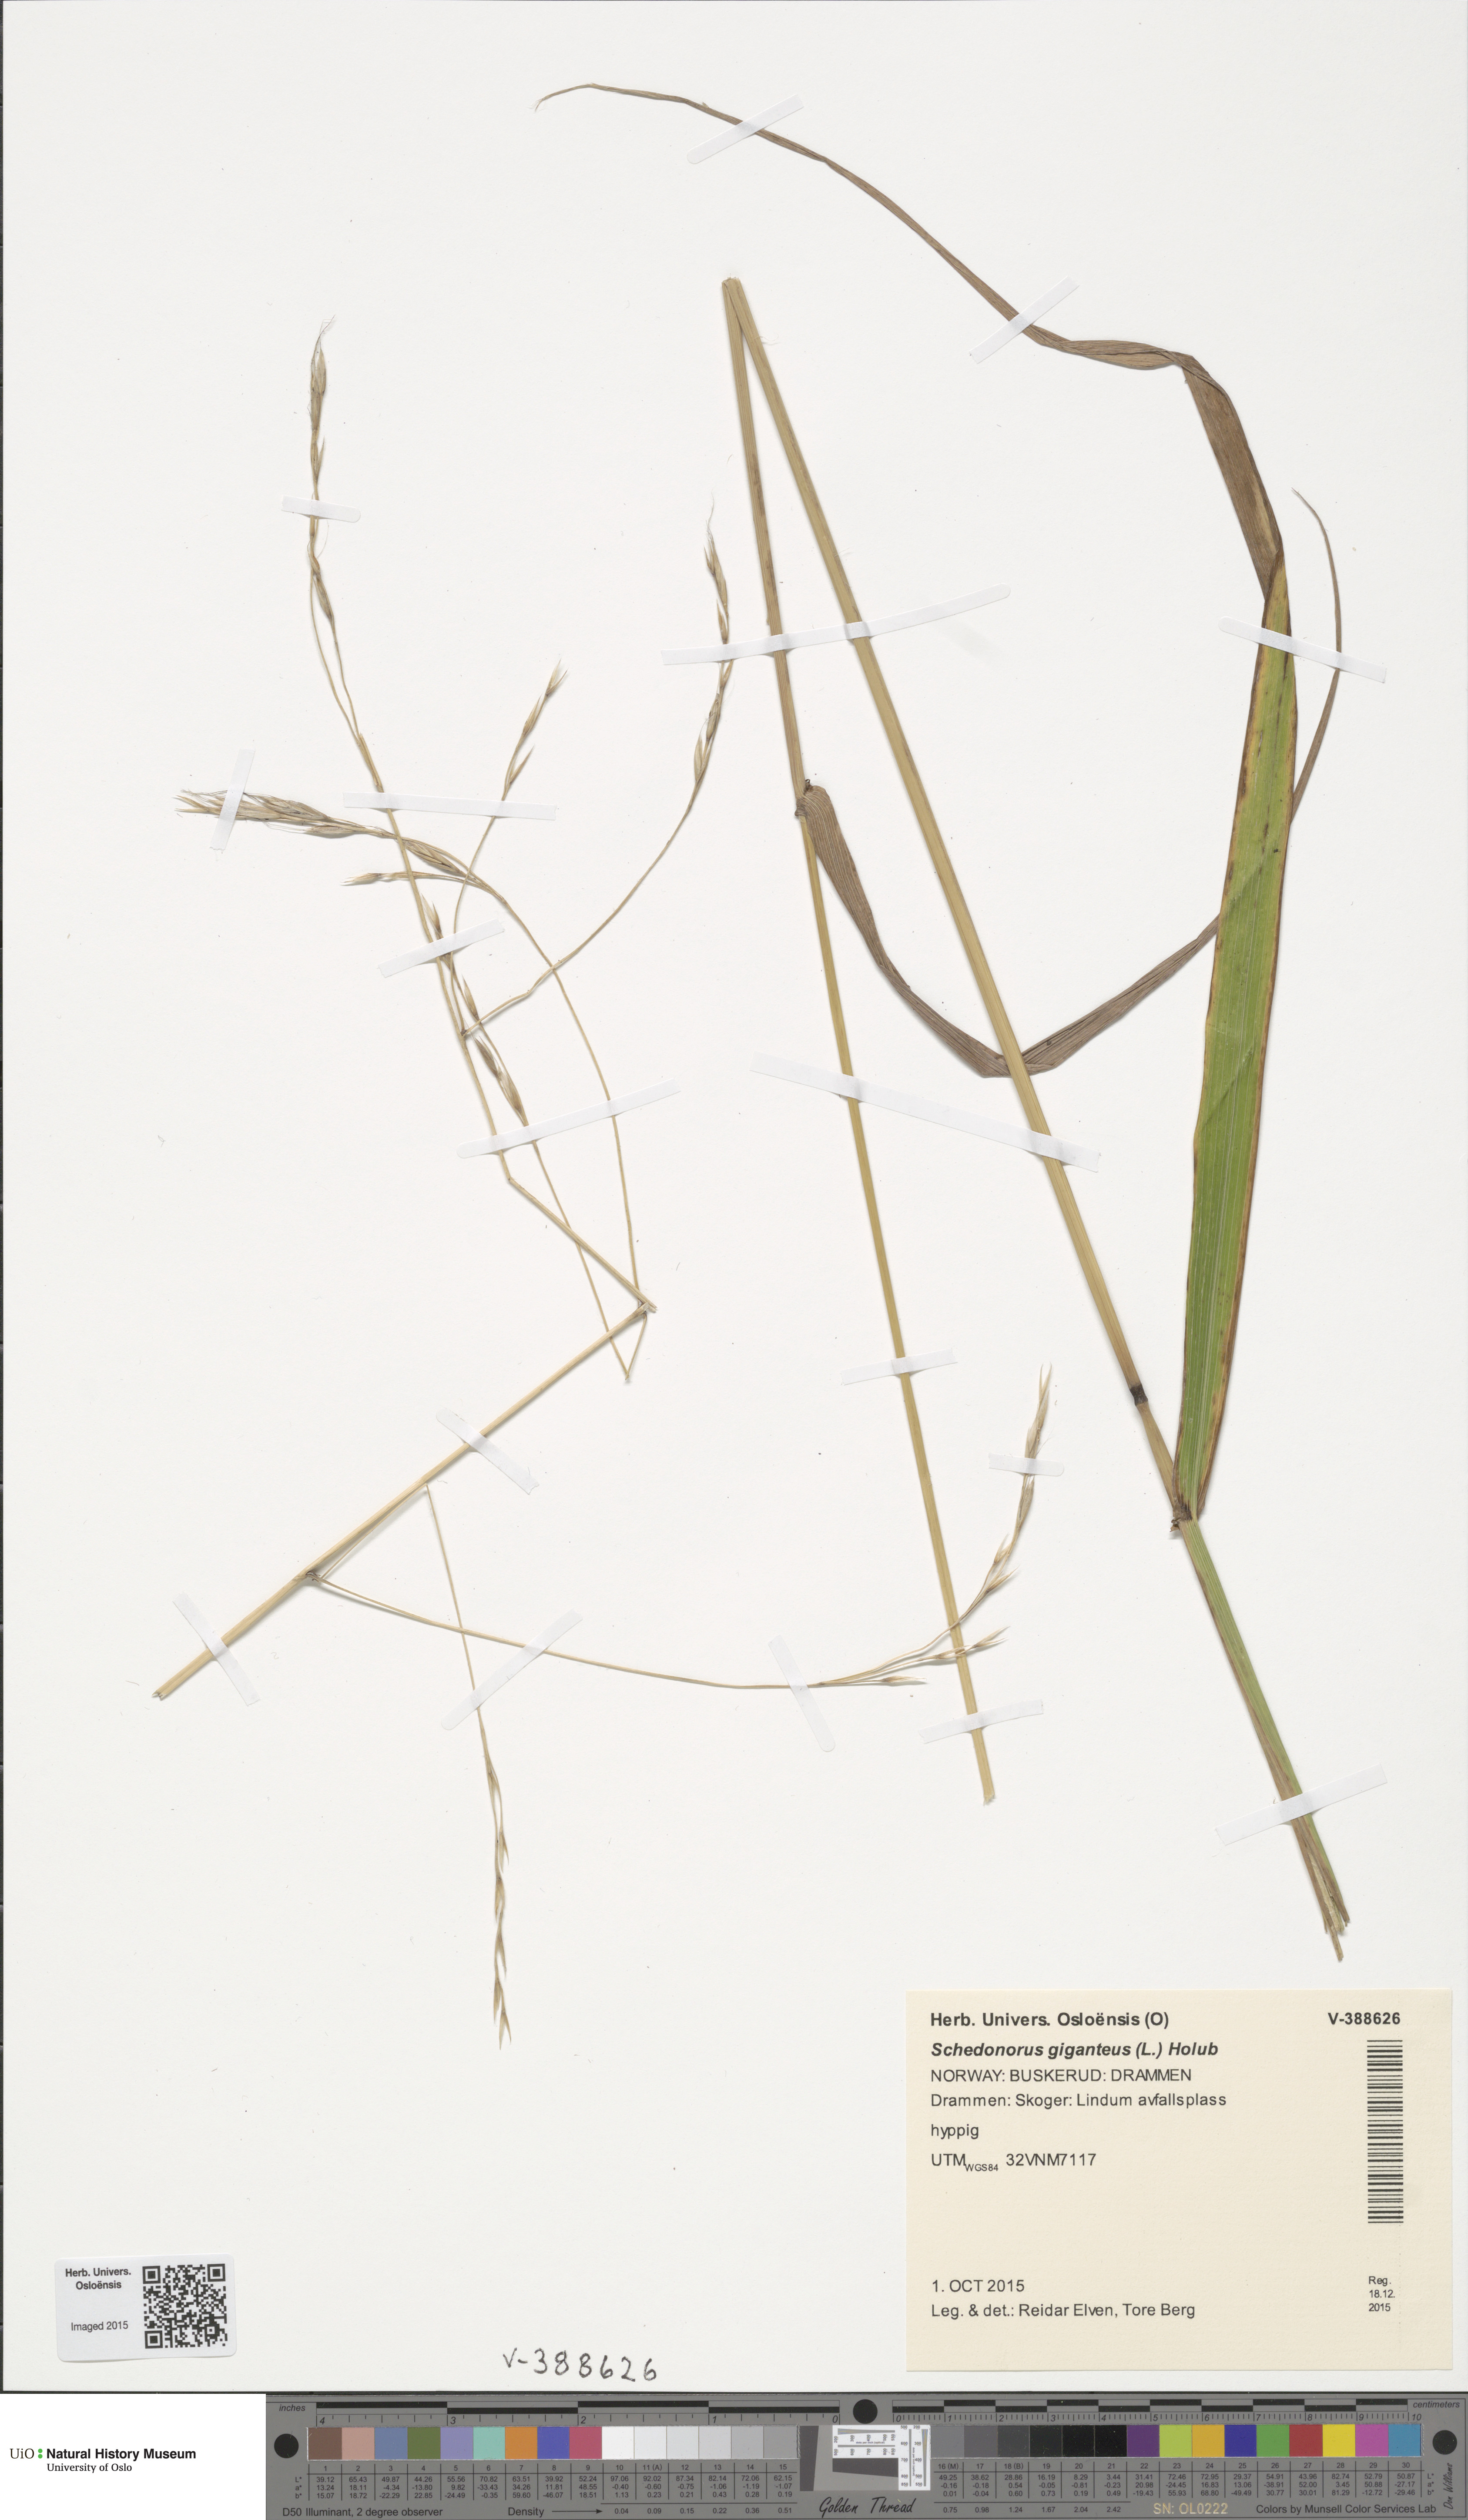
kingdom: Plantae
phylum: Tracheophyta
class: Liliopsida
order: Poales
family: Poaceae
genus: Lolium
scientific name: Lolium giganteum
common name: Giant fescue
